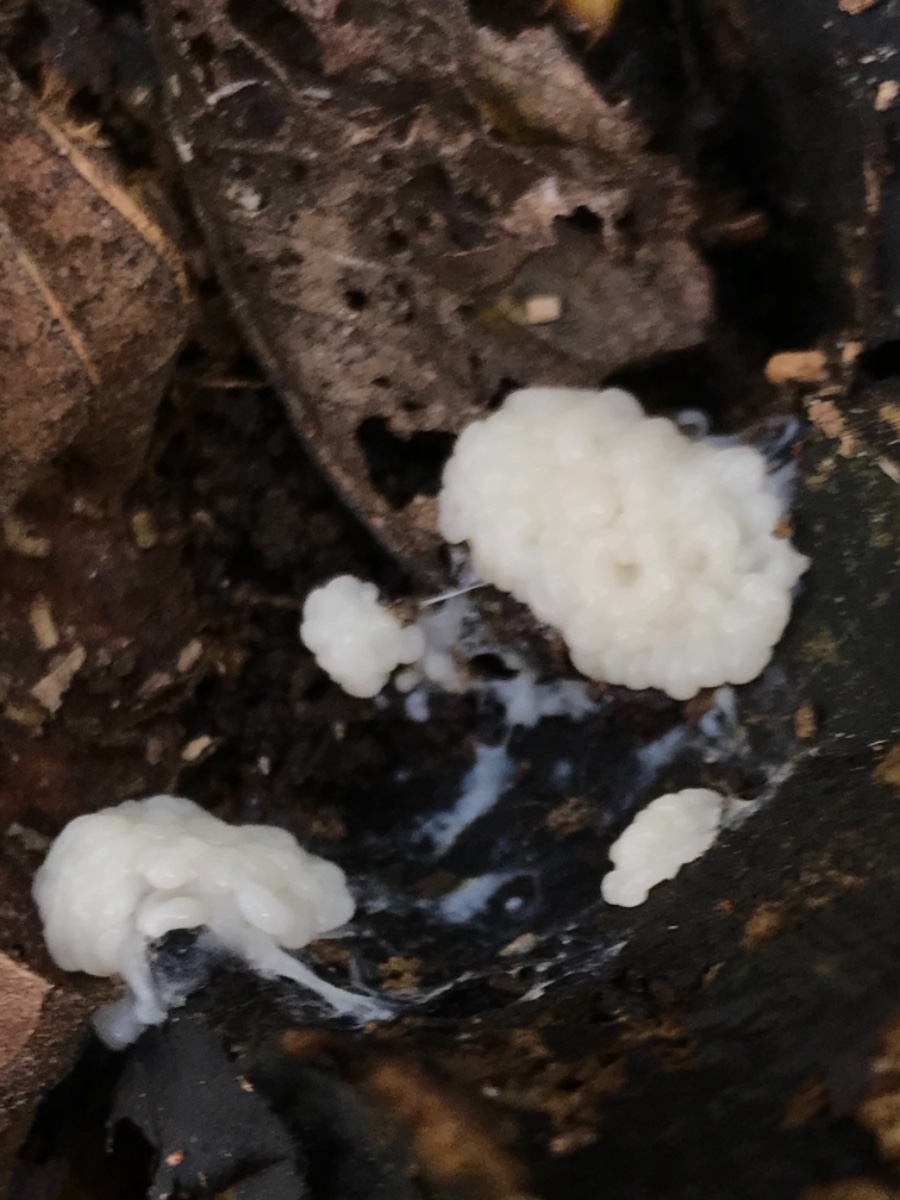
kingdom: Protozoa
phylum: Mycetozoa
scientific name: Mycetozoa
